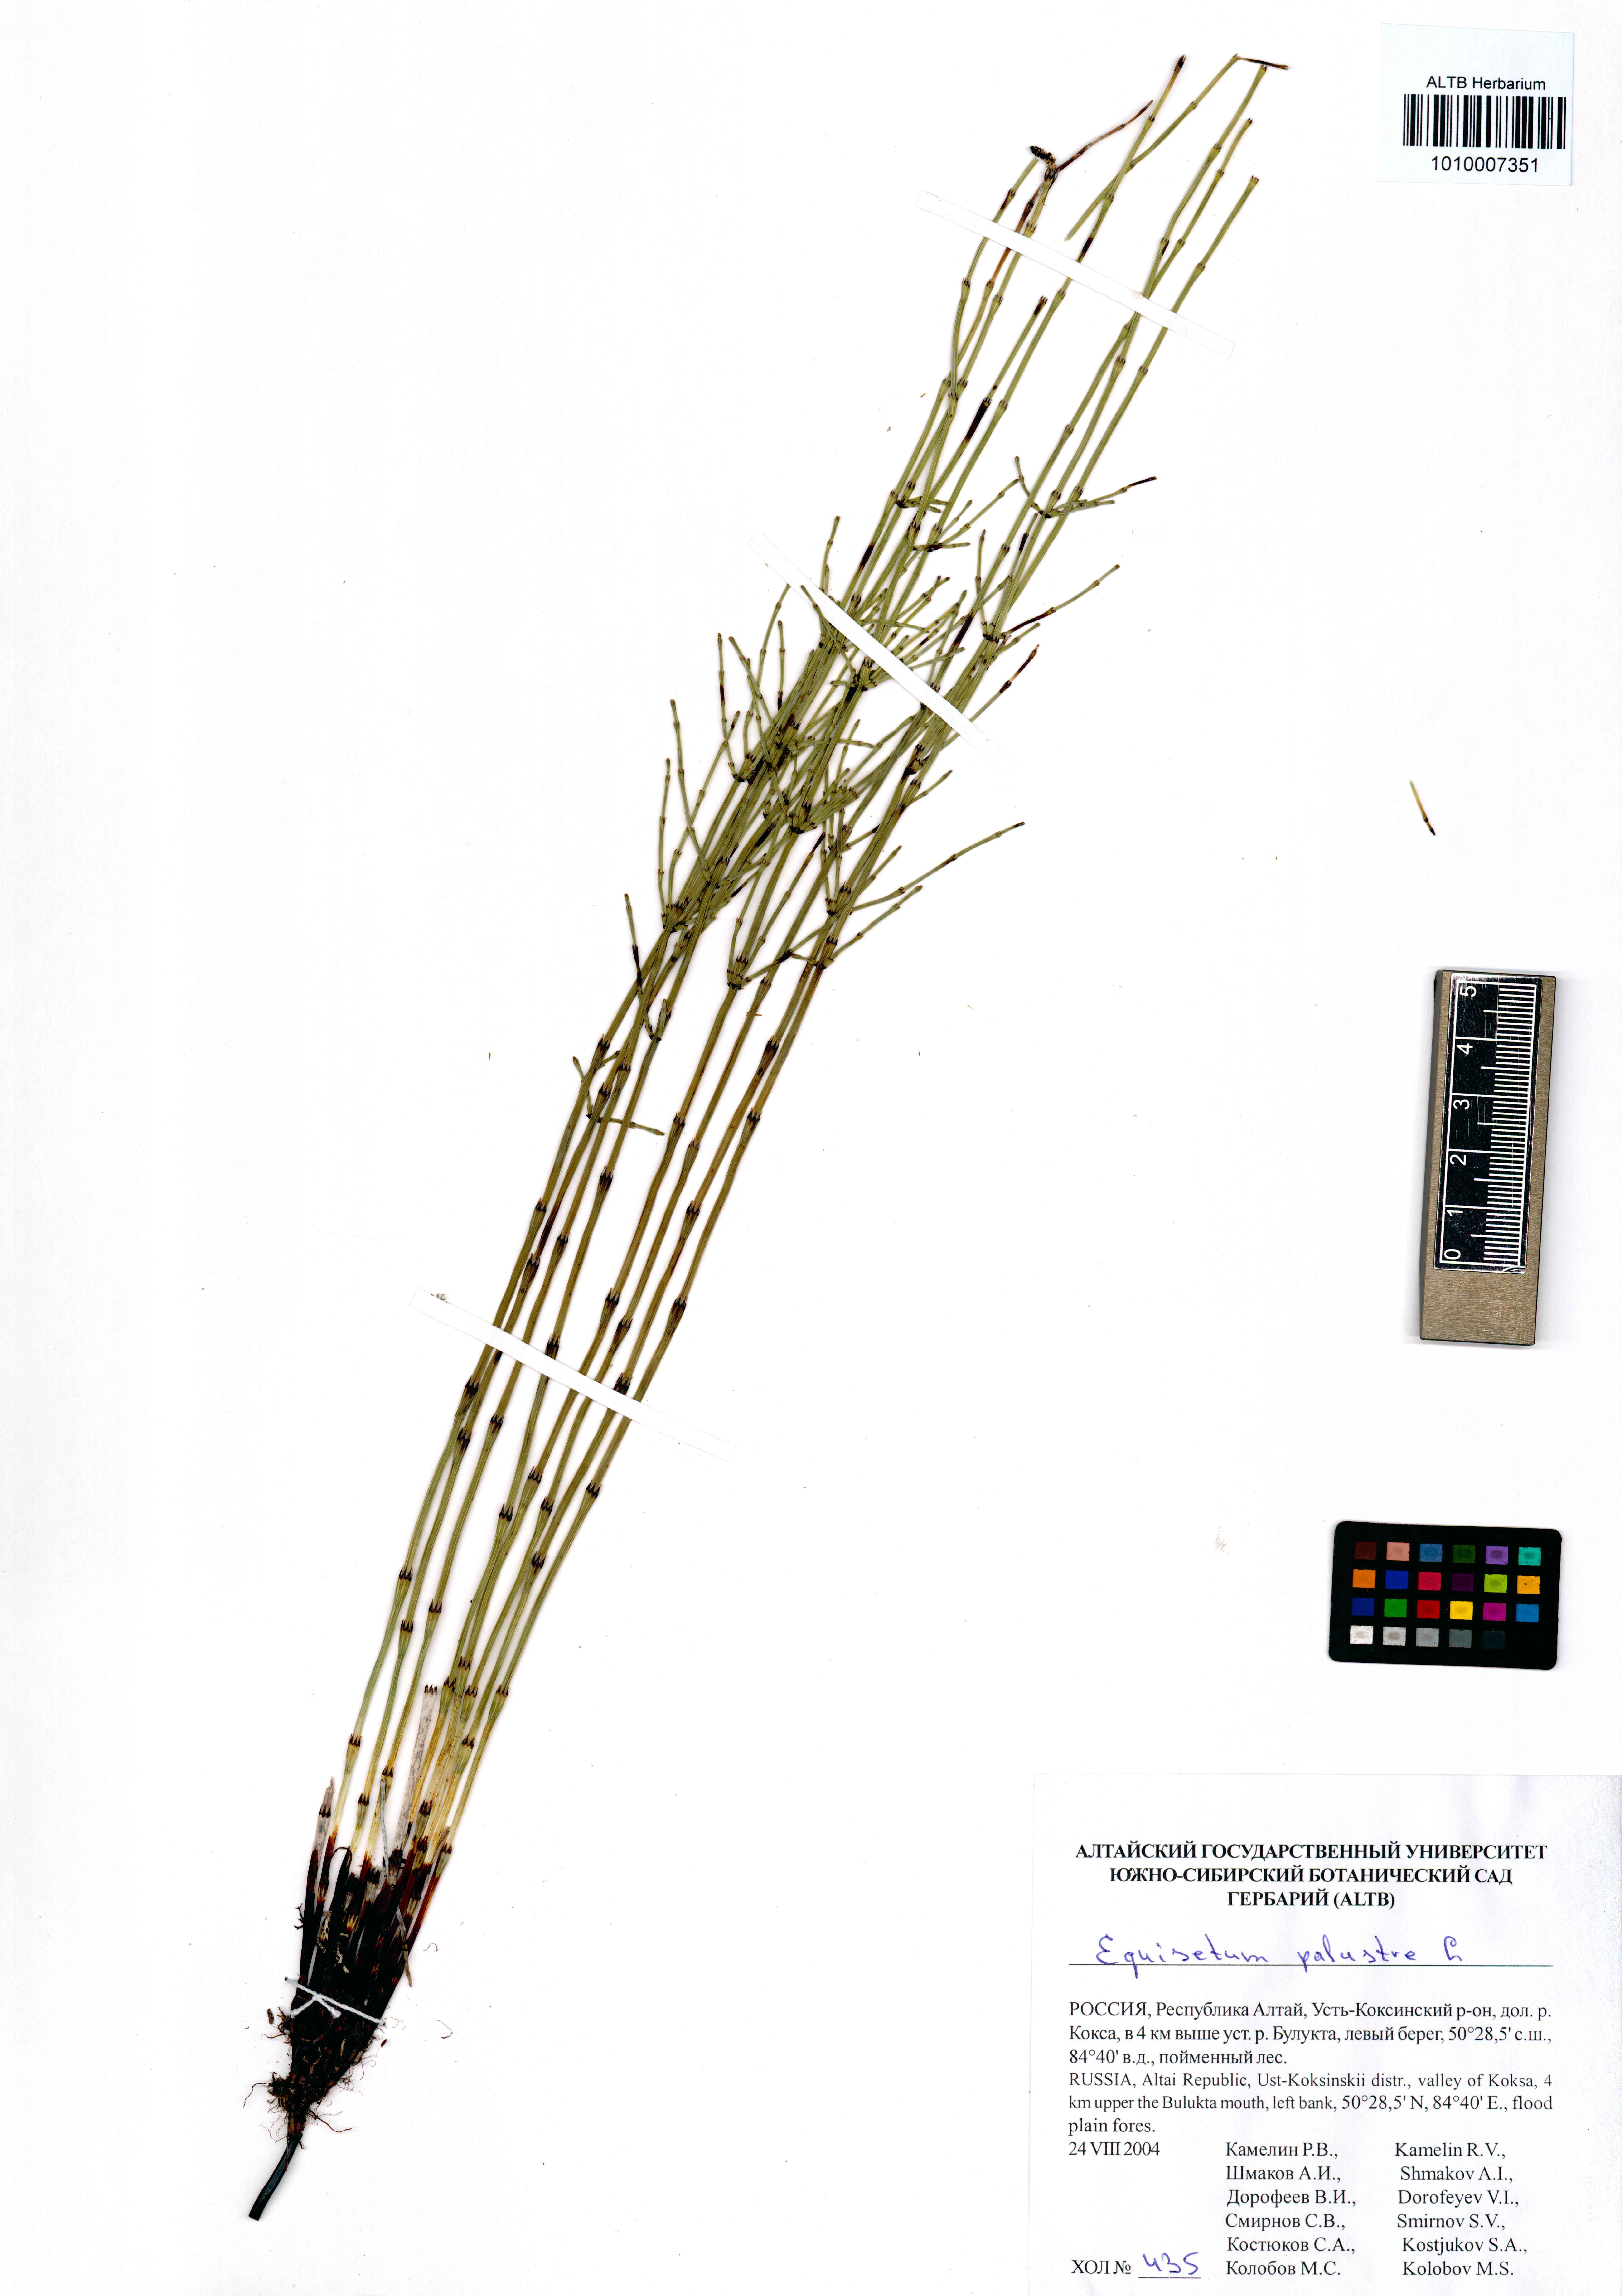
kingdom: Plantae
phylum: Tracheophyta
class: Polypodiopsida
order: Equisetales
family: Equisetaceae
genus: Equisetum
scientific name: Equisetum palustre
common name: Marsh horsetail
